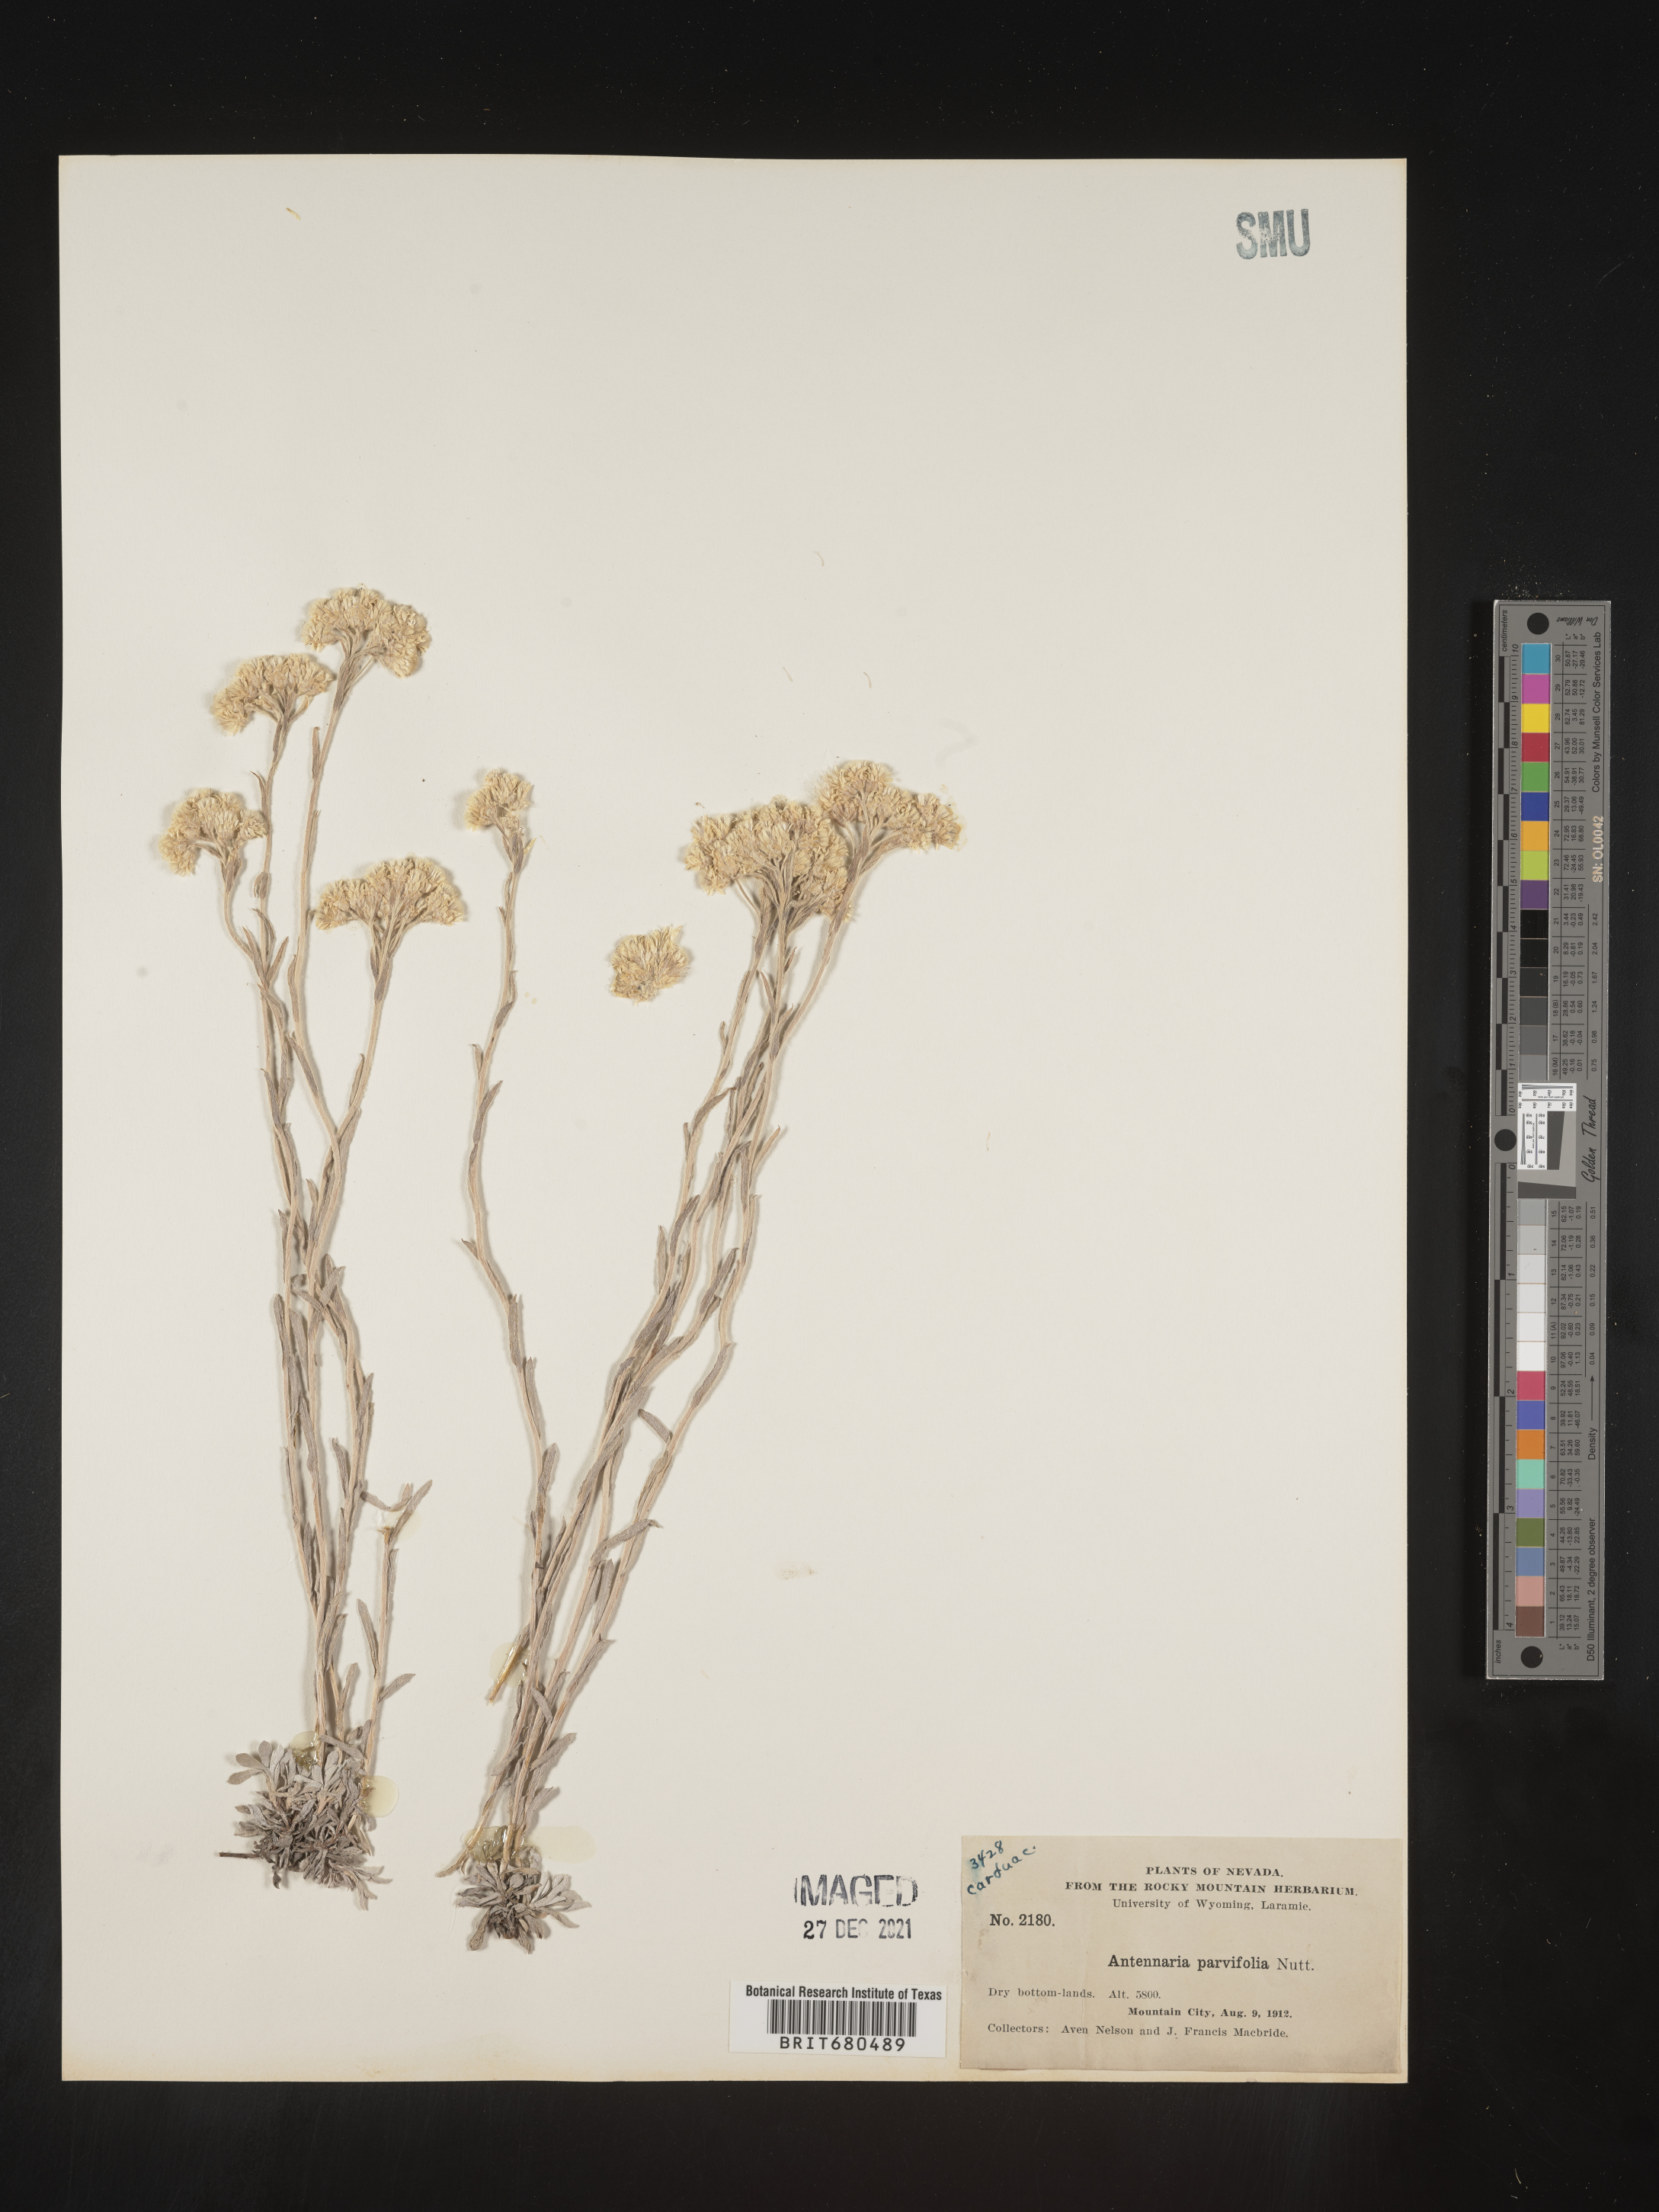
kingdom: Plantae
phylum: Tracheophyta
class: Magnoliopsida
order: Asterales
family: Asteraceae
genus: Antennaria
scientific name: Antennaria rosea
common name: Rosy pussytoes
